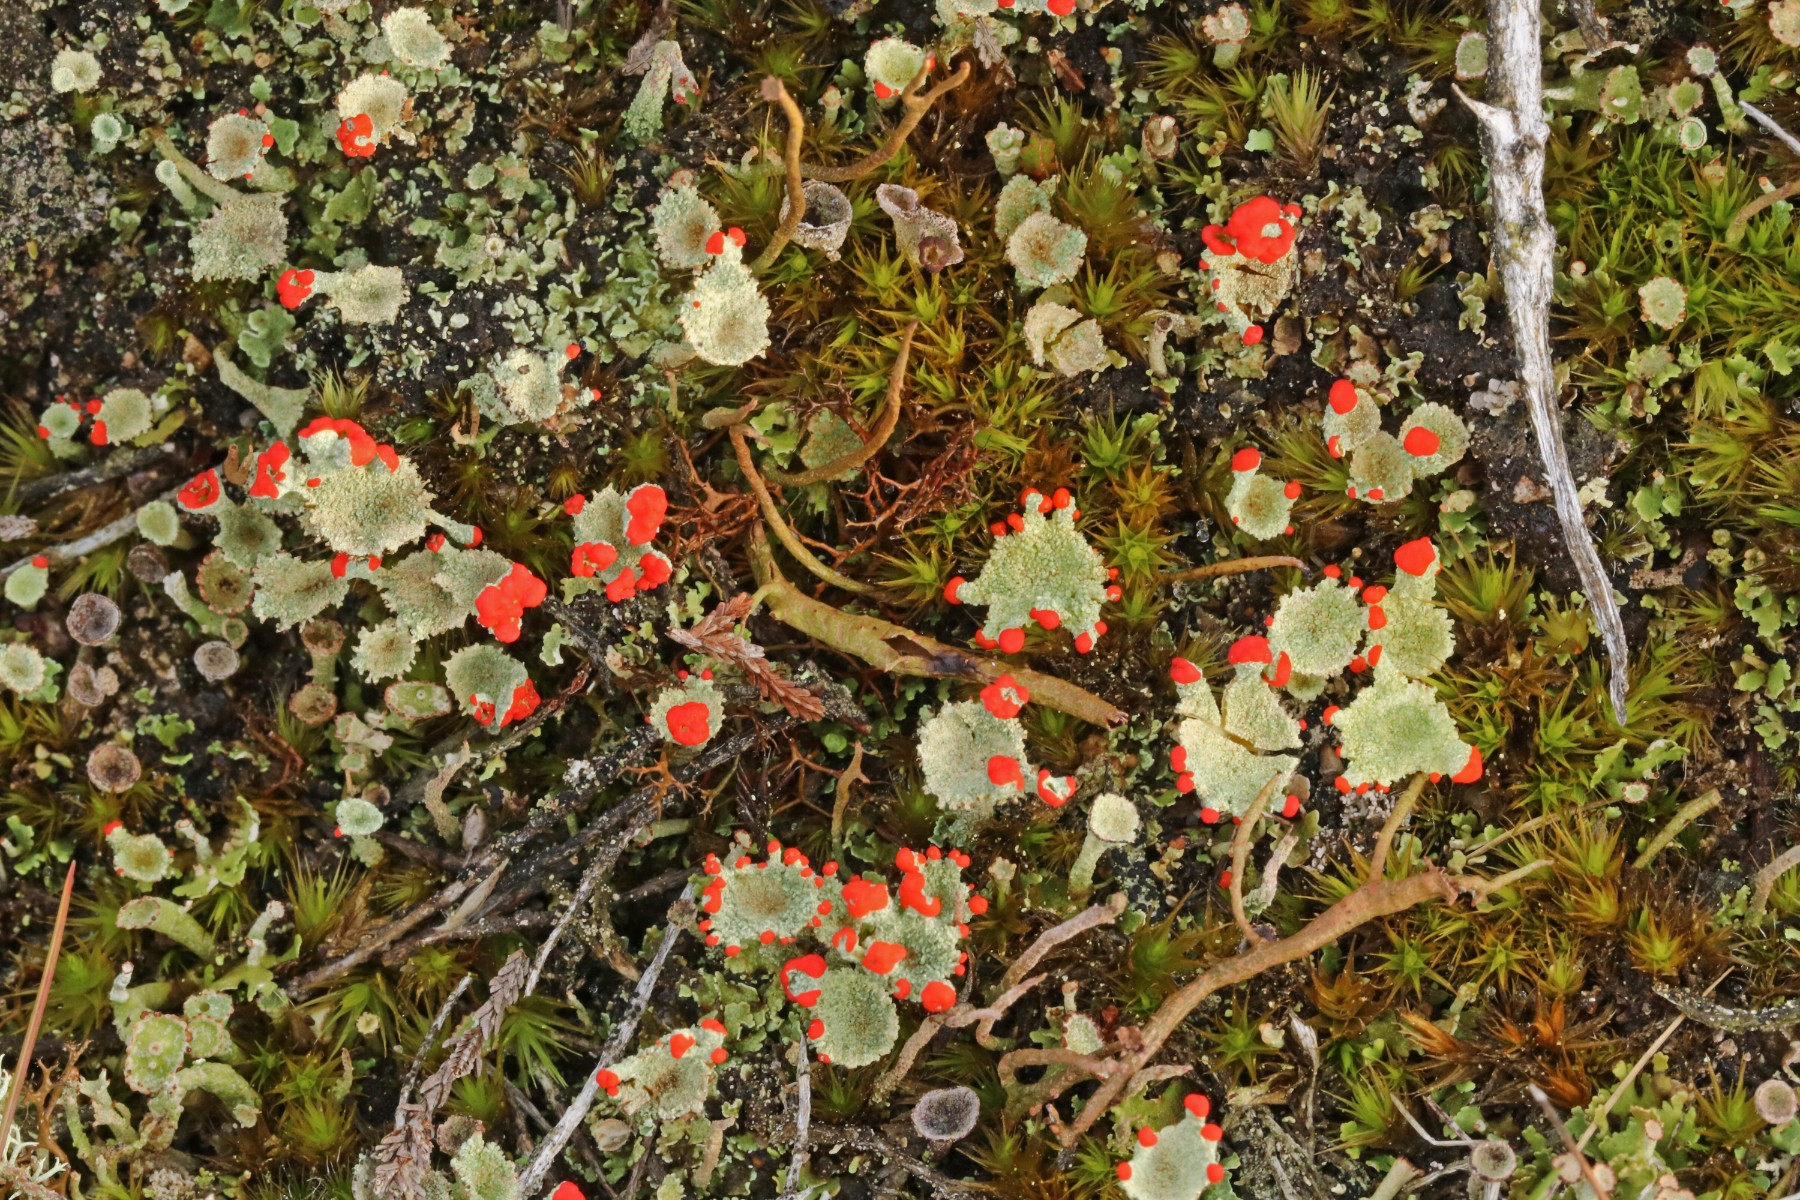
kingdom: Fungi
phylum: Ascomycota
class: Lecanoromycetes
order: Lecanorales
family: Cladoniaceae
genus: Cladonia
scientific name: Cladonia diversa
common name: rød bægerlav
